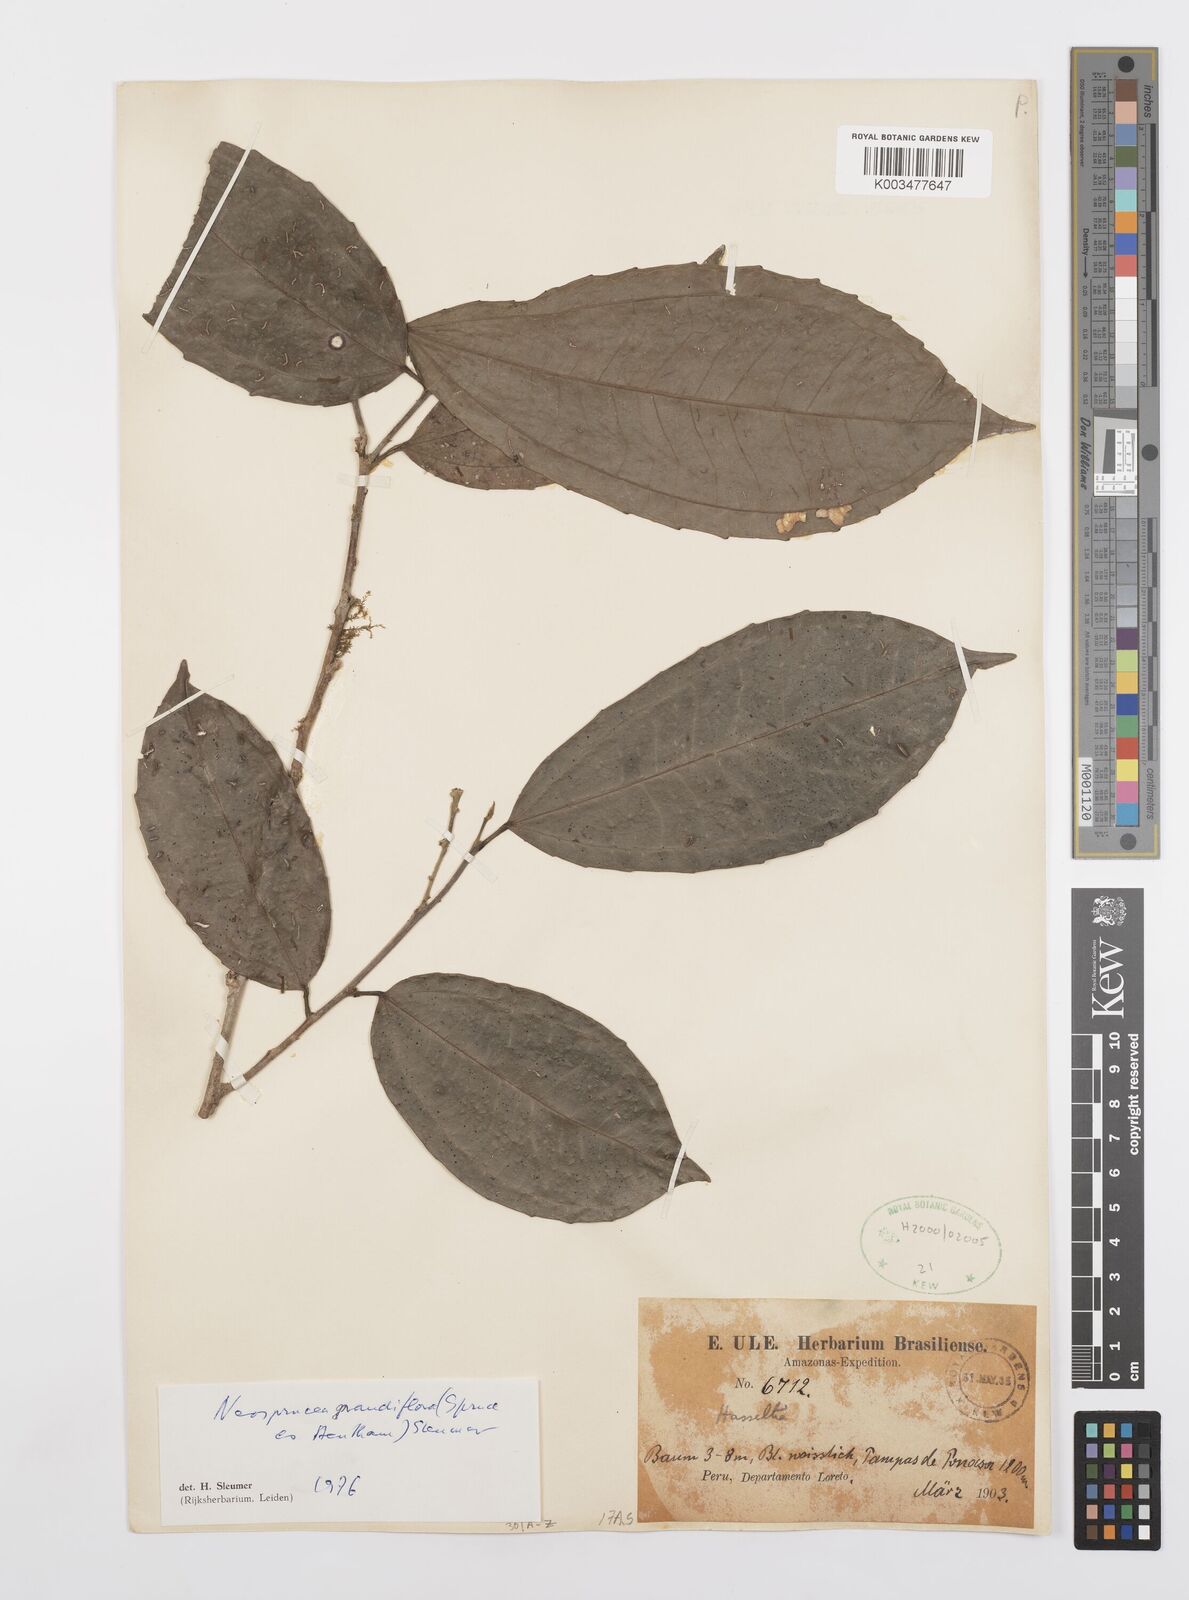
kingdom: Plantae
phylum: Tracheophyta
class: Magnoliopsida
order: Malpighiales
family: Salicaceae
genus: Neosprucea
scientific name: Neosprucea grandiflora
